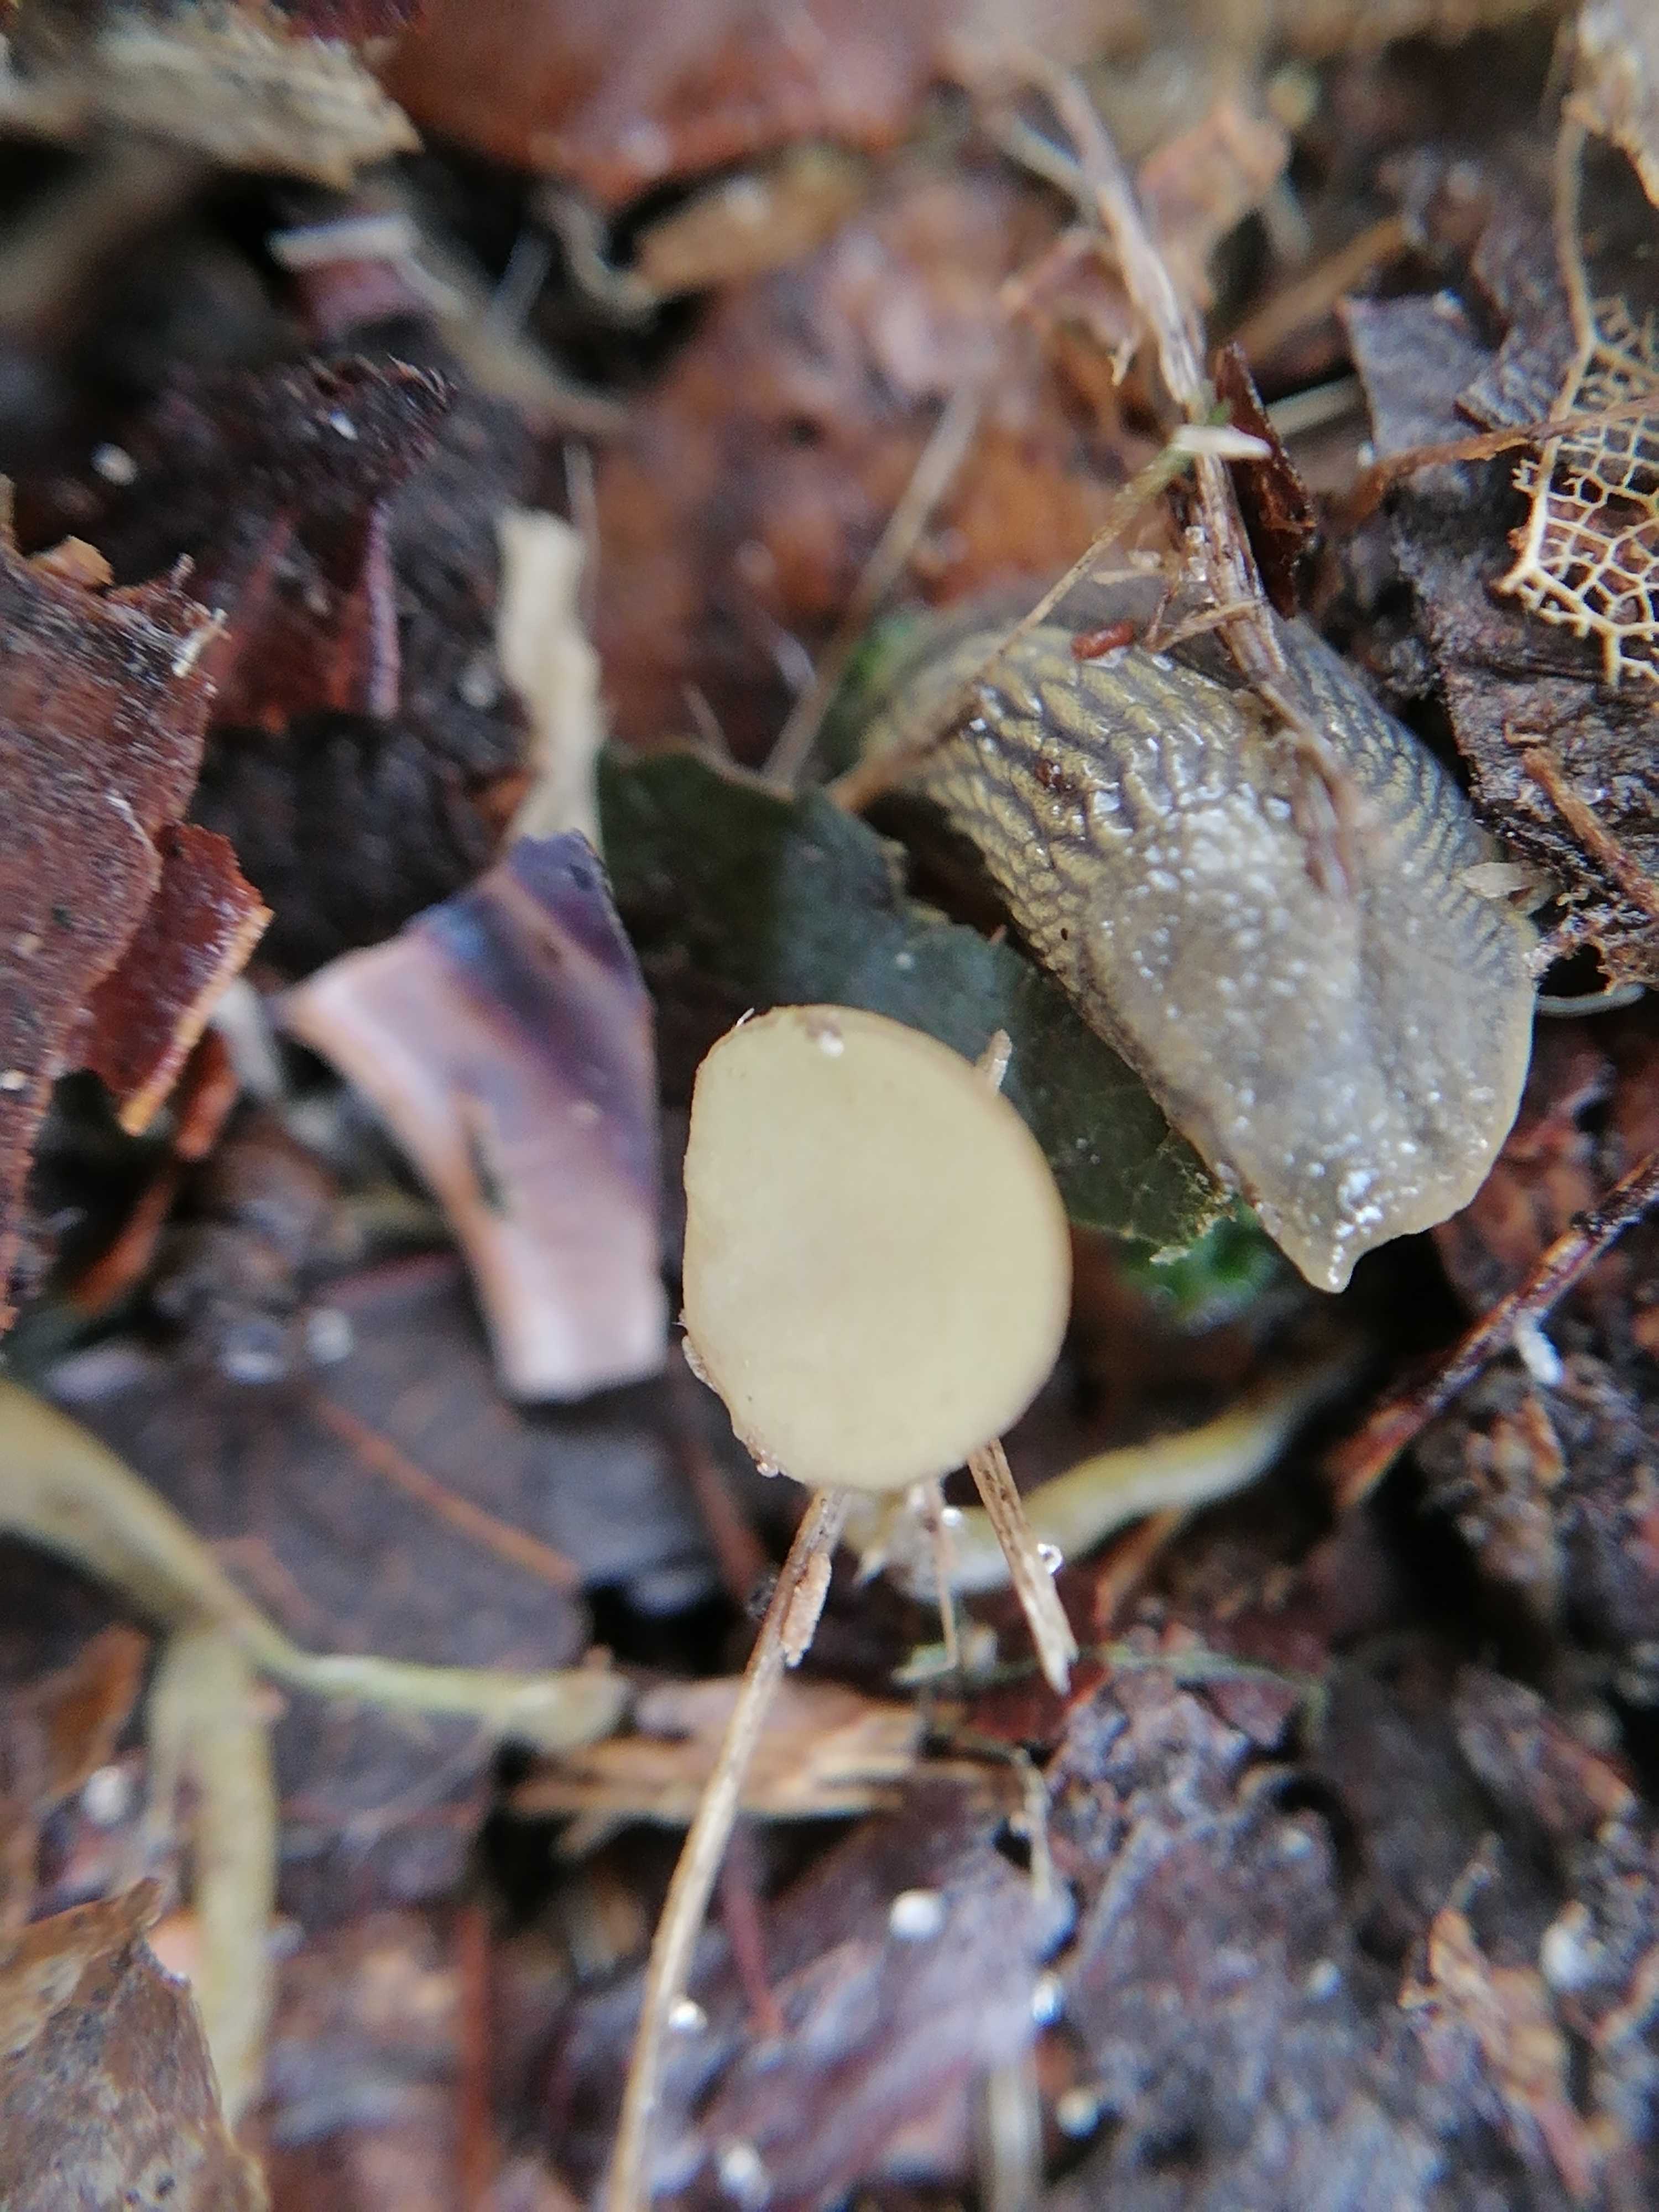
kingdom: Fungi
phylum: Ascomycota
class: Leotiomycetes
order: Helotiales
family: Rutstroemiaceae
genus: Lanzia
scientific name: Lanzia luteovirescens
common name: olivengul brunskive
